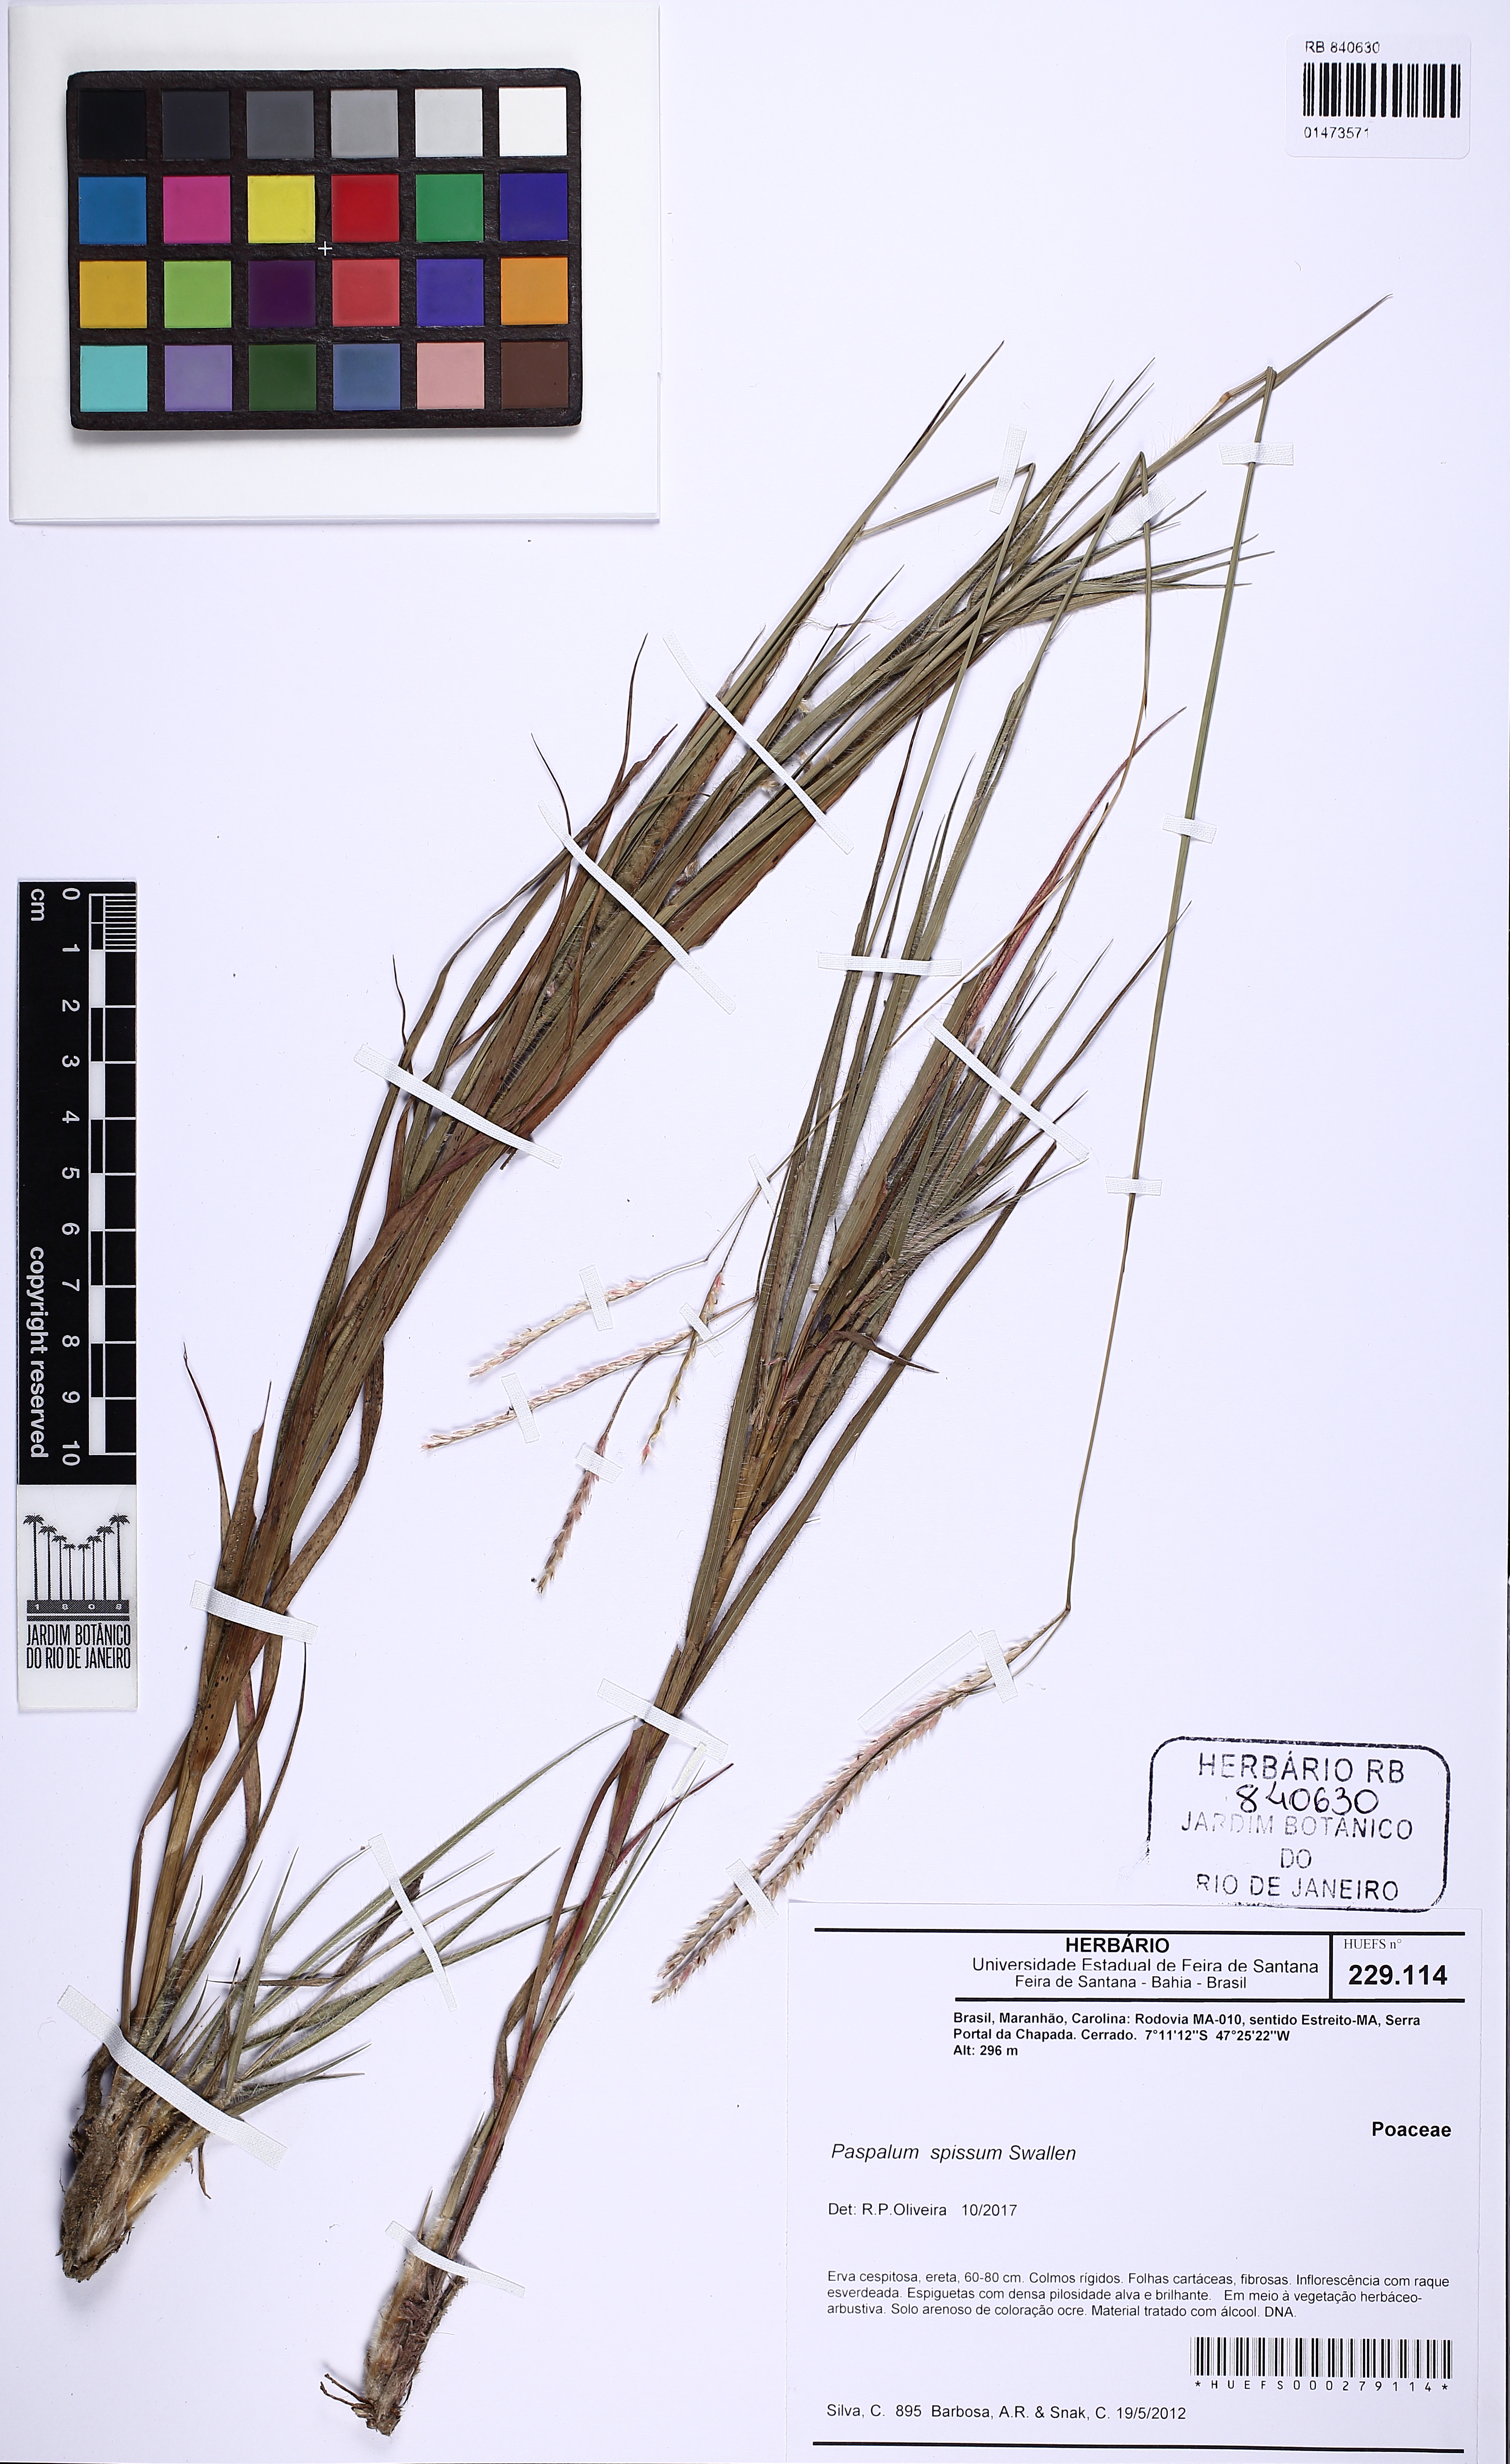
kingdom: Plantae
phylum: Tracheophyta
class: Liliopsida
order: Poales
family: Poaceae
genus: Paspalum
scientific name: Paspalum carinatum
